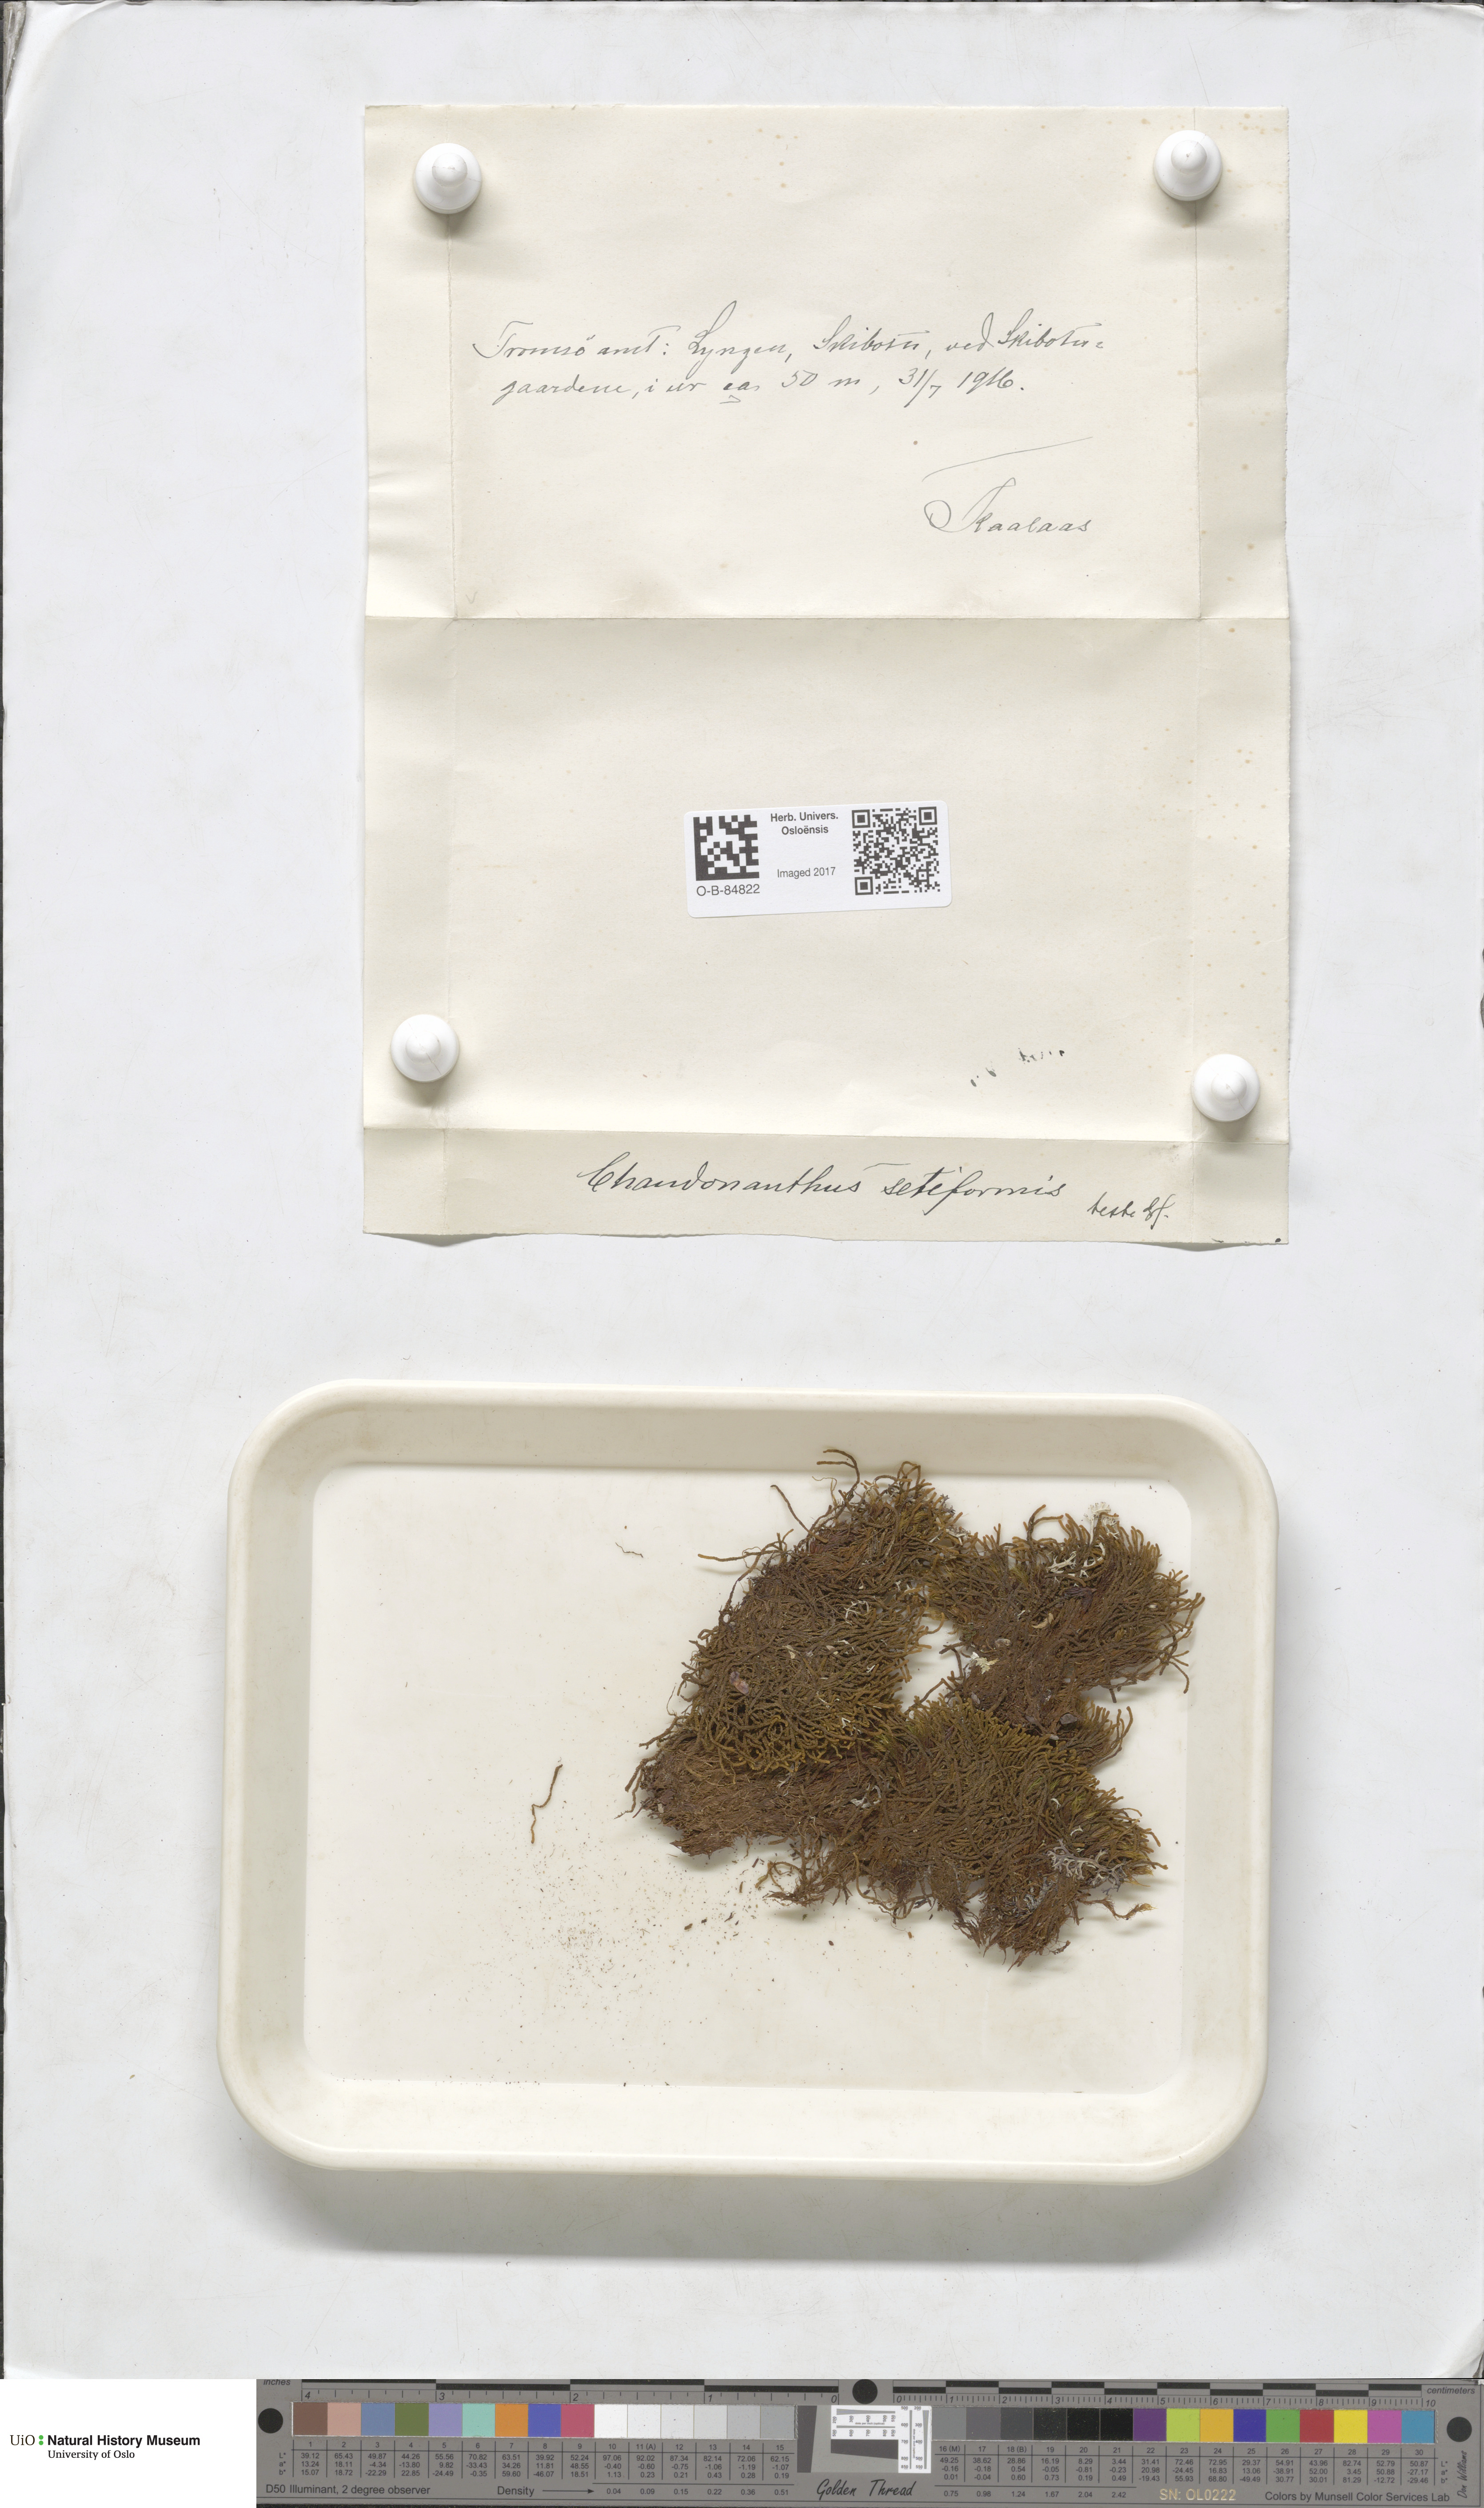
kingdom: Plantae
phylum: Marchantiophyta
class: Jungermanniopsida
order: Jungermanniales
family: Anastrophyllaceae
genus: Tetralophozia
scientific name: Tetralophozia setiformis
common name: Monster pawwort
